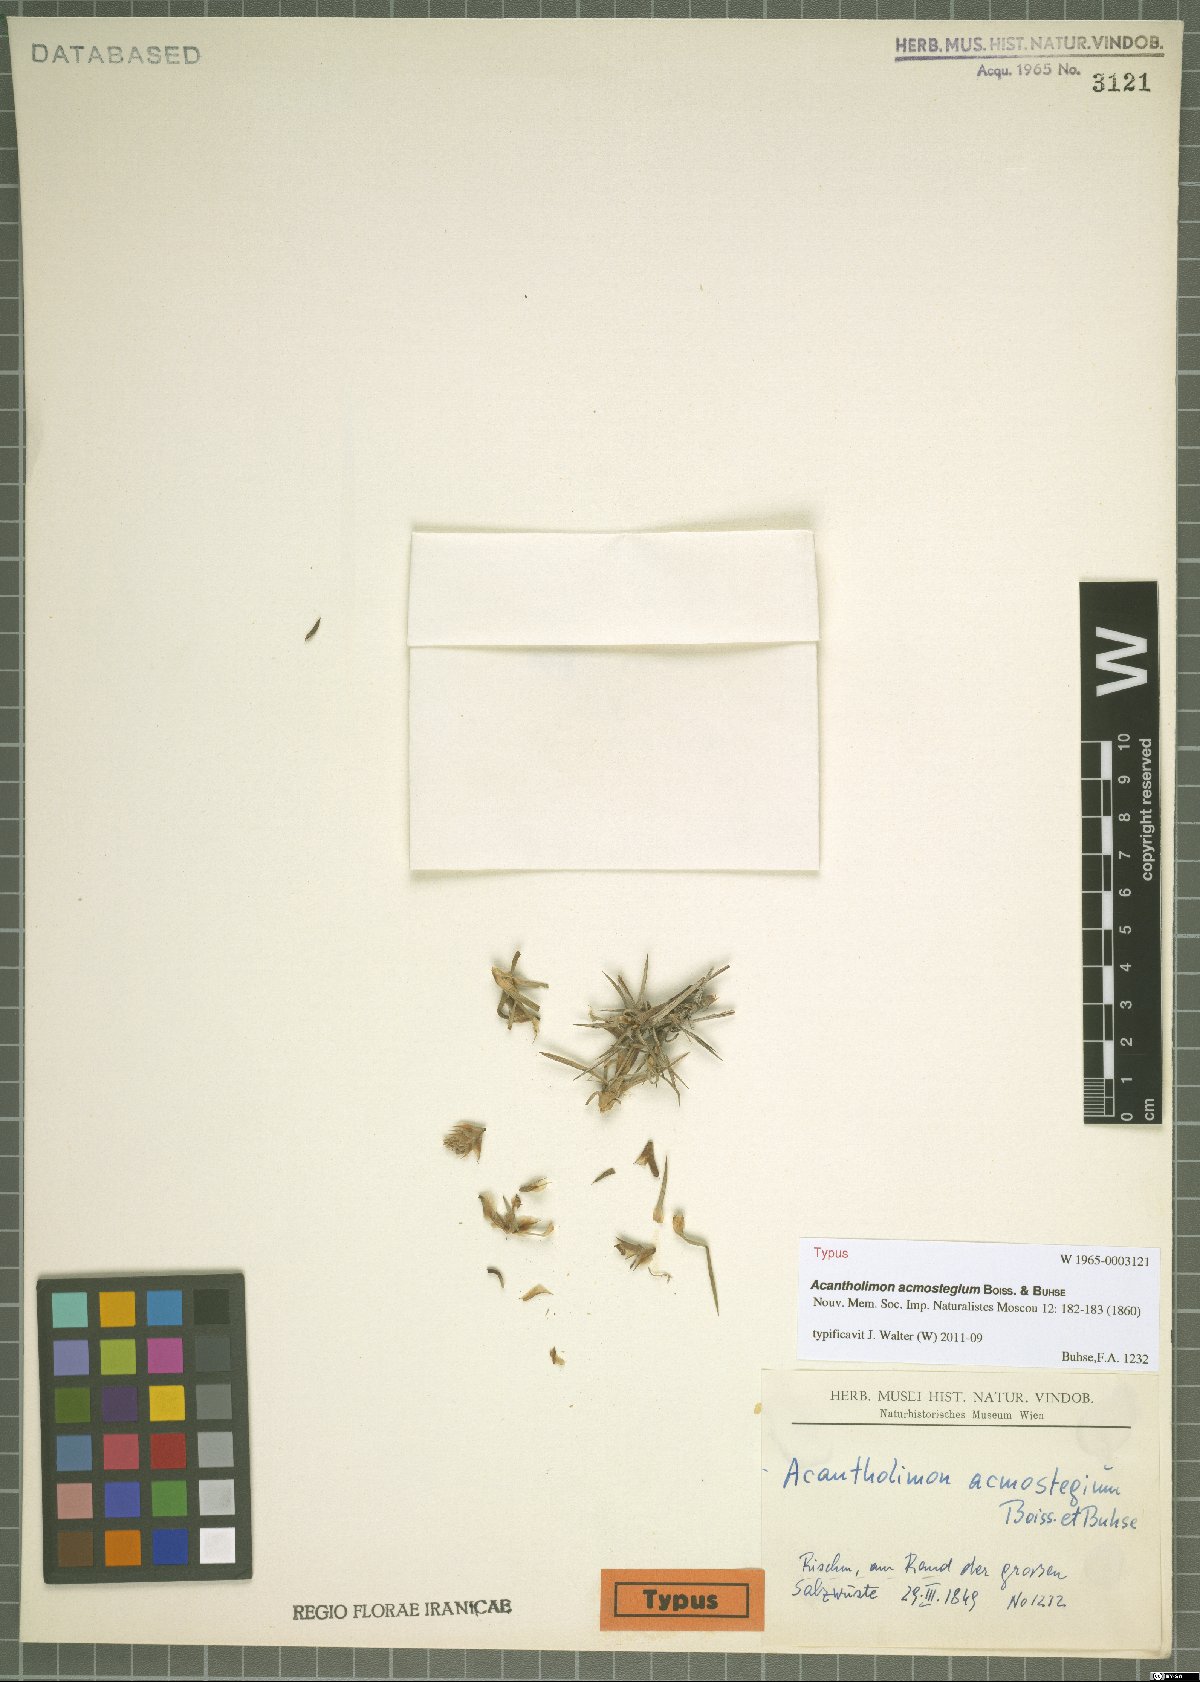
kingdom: Plantae
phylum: Tracheophyta
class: Magnoliopsida
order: Caryophyllales
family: Plumbaginaceae
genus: Acantholimon
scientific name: Acantholimon acmostegium
